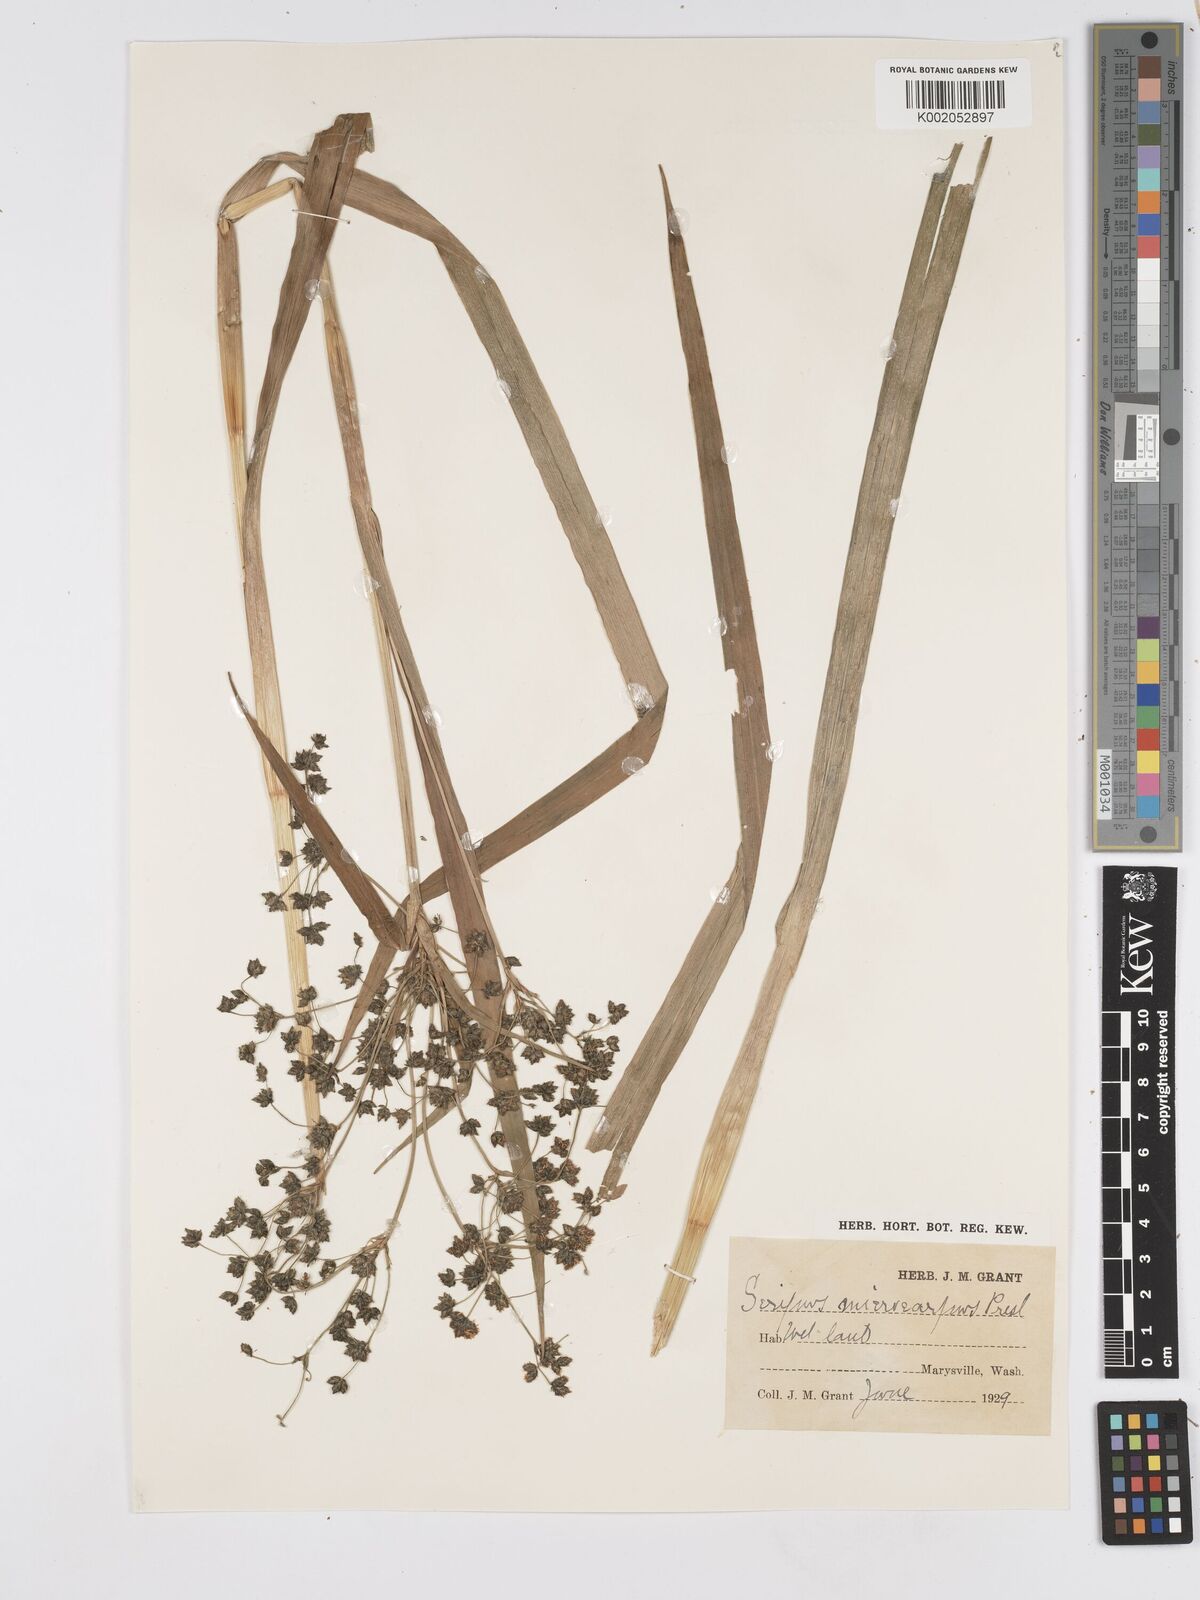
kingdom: Plantae
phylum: Tracheophyta
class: Liliopsida
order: Poales
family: Cyperaceae
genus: Scirpus
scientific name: Scirpus sylvaticus
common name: Wood club-rush
